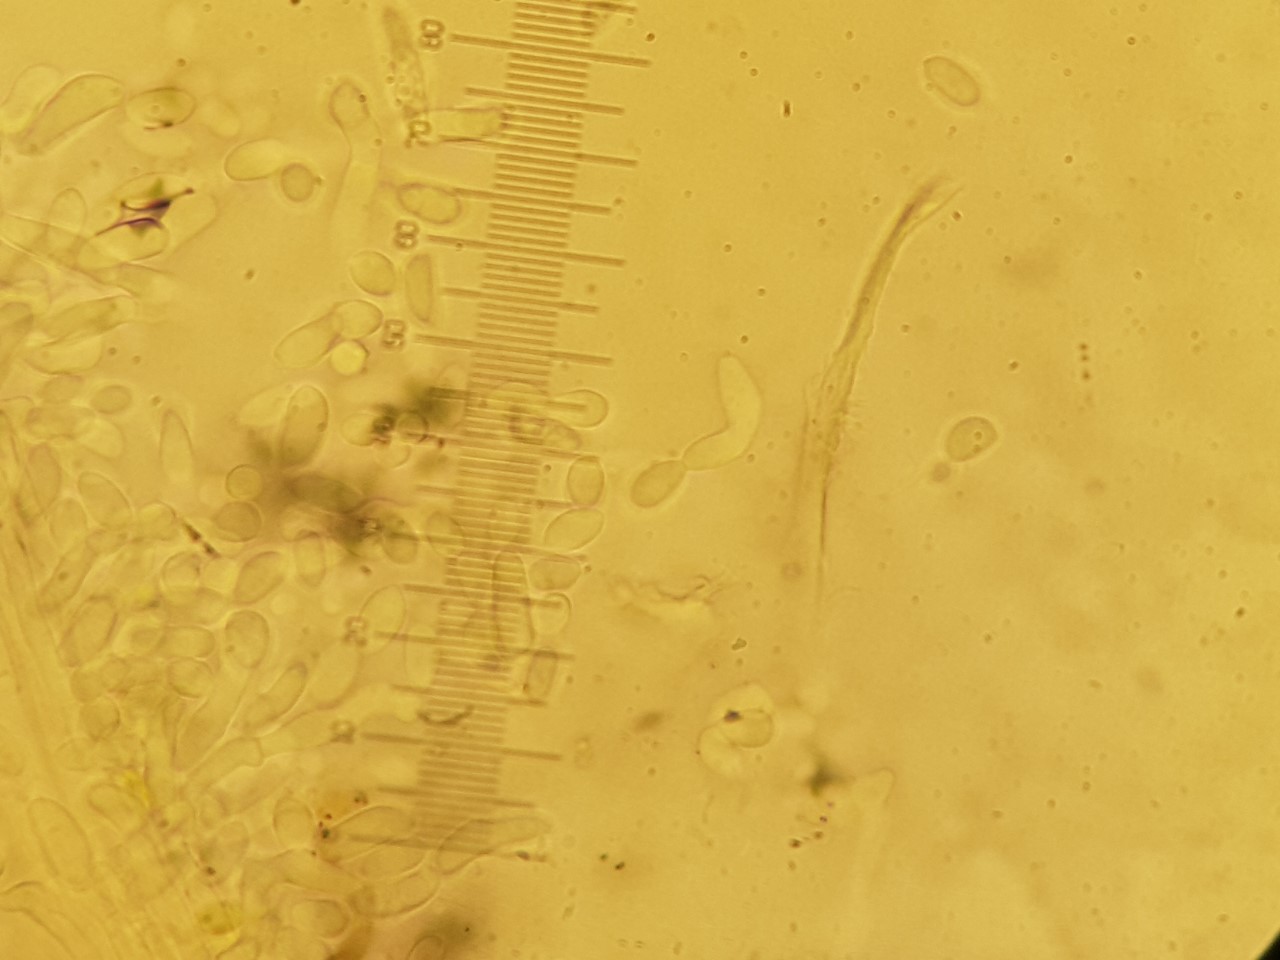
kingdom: Fungi
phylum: Ascomycota
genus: Sphaeridium
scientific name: Sphaeridium candidulum
